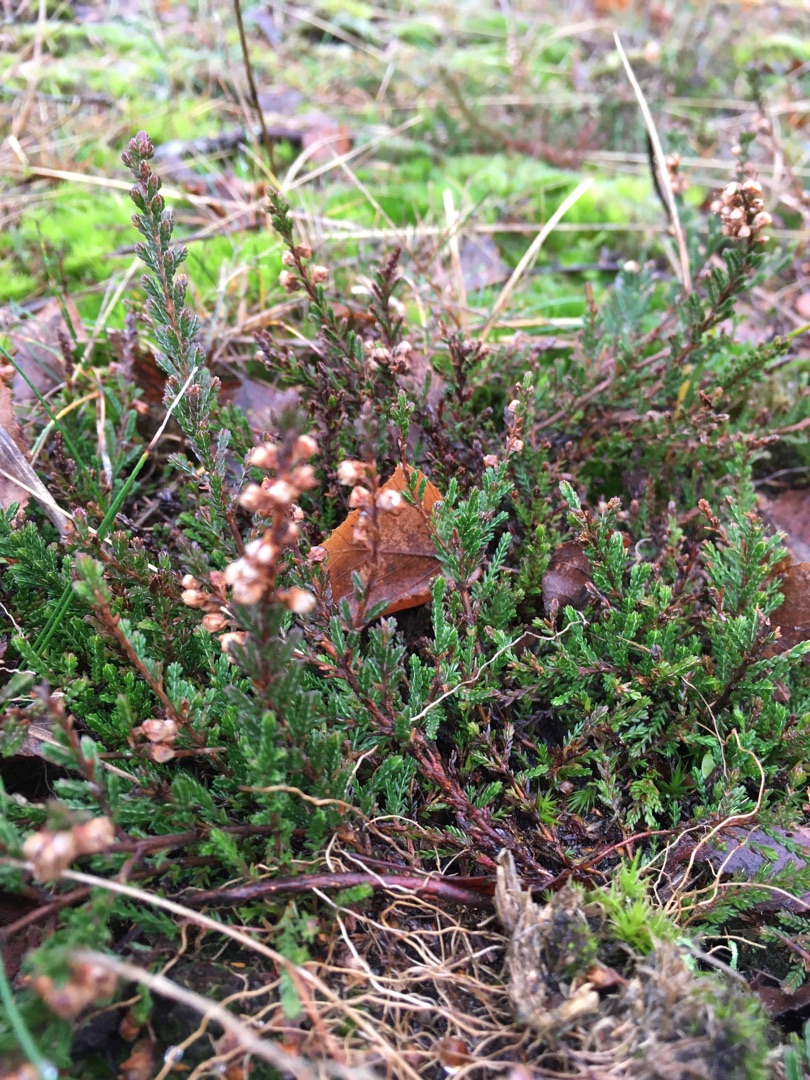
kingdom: Plantae
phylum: Tracheophyta
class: Magnoliopsida
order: Ericales
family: Ericaceae
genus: Calluna
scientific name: Calluna vulgaris
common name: Hedelyng
